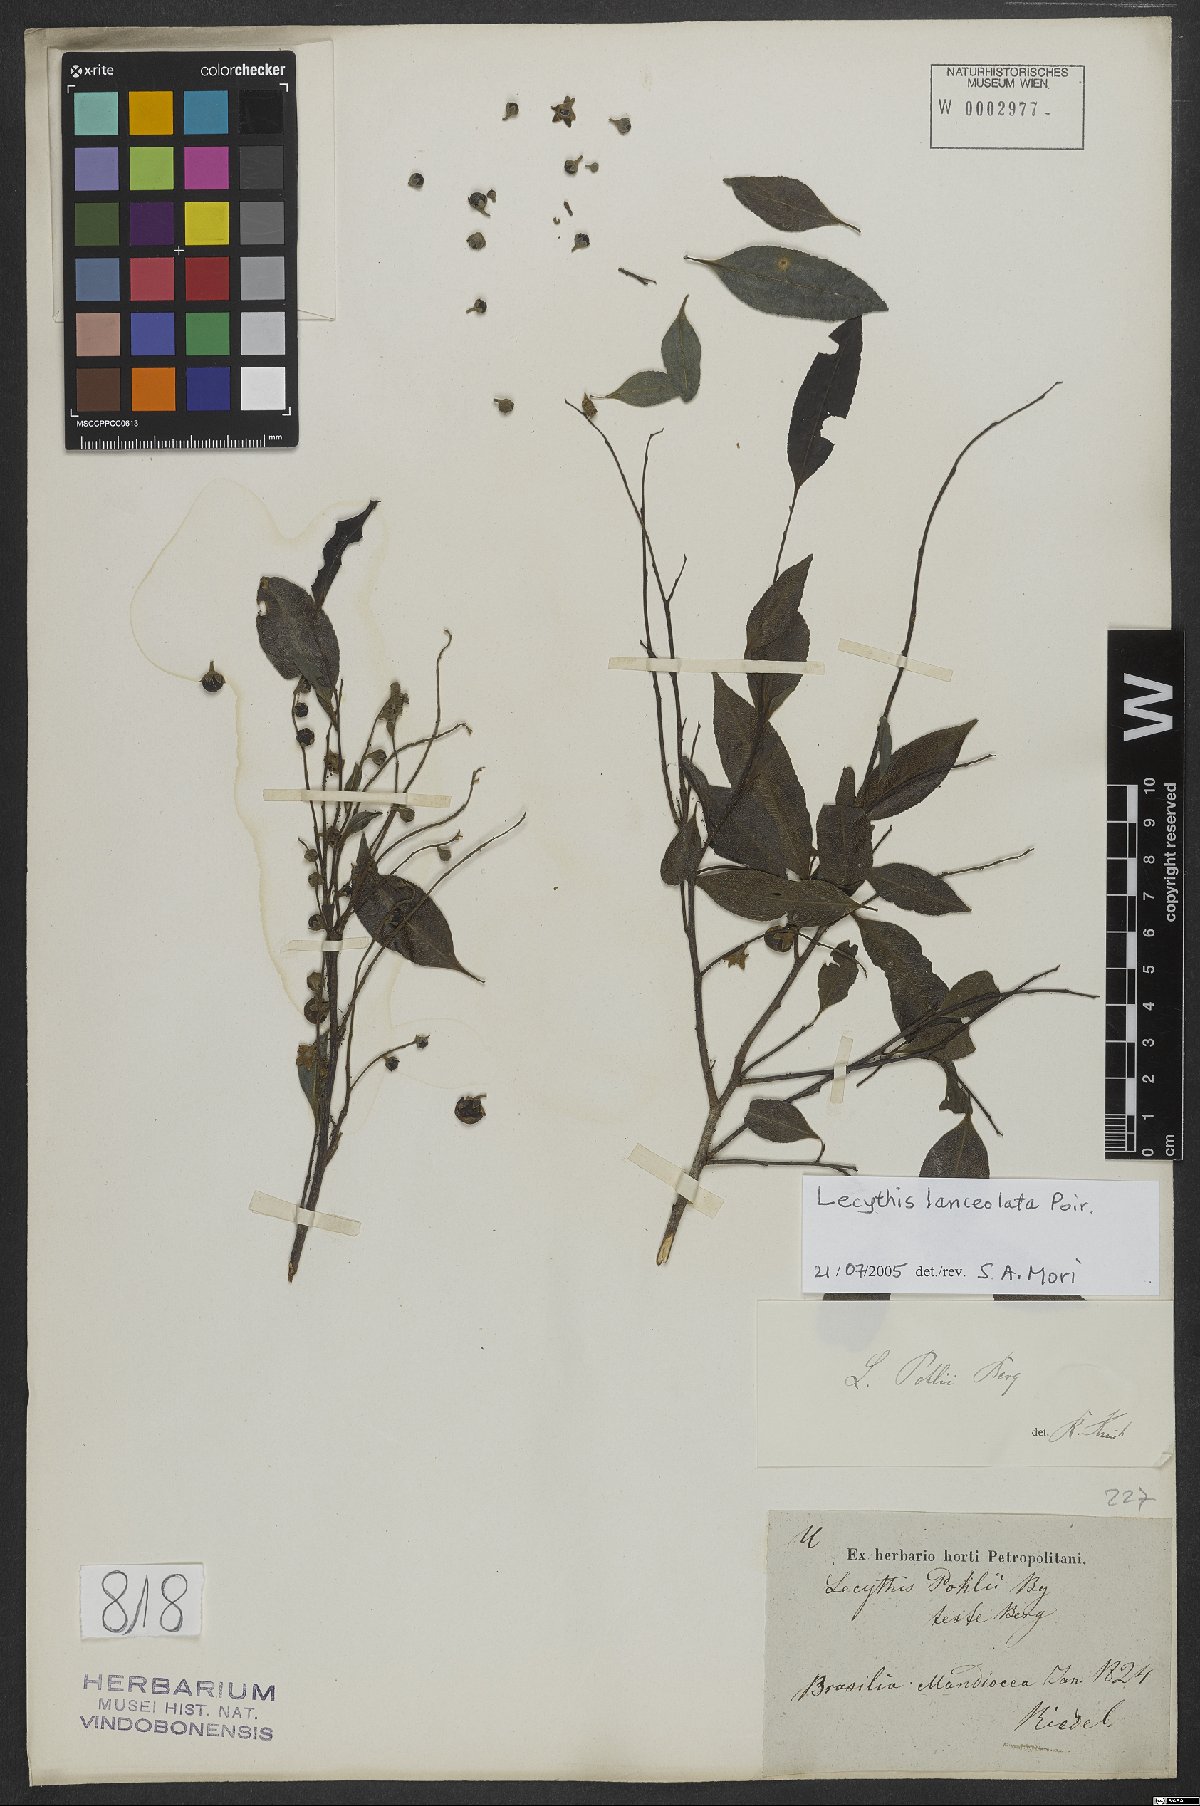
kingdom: Plantae
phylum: Tracheophyta
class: Magnoliopsida
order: Ericales
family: Lecythidaceae
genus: Lecythis
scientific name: Lecythis lanceolata
